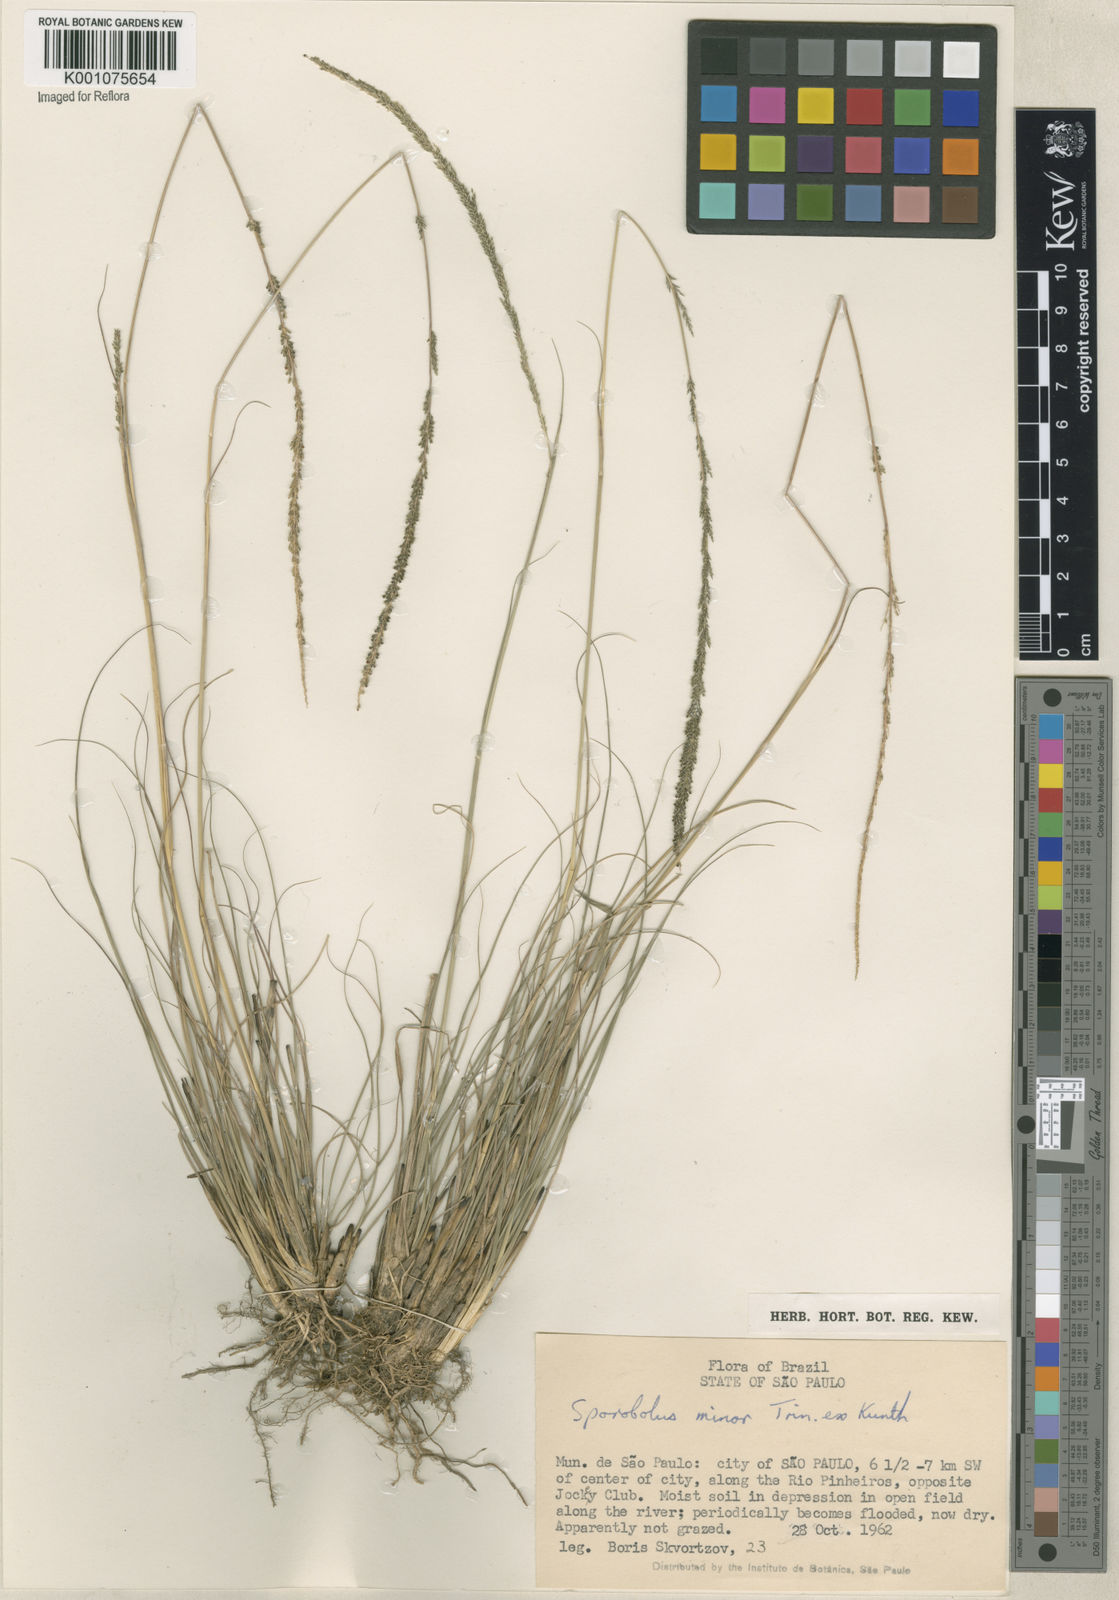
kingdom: Plantae
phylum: Tracheophyta
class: Liliopsida
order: Poales
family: Poaceae
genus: Sporobolus
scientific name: Sporobolus indicus
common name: Smut grass
